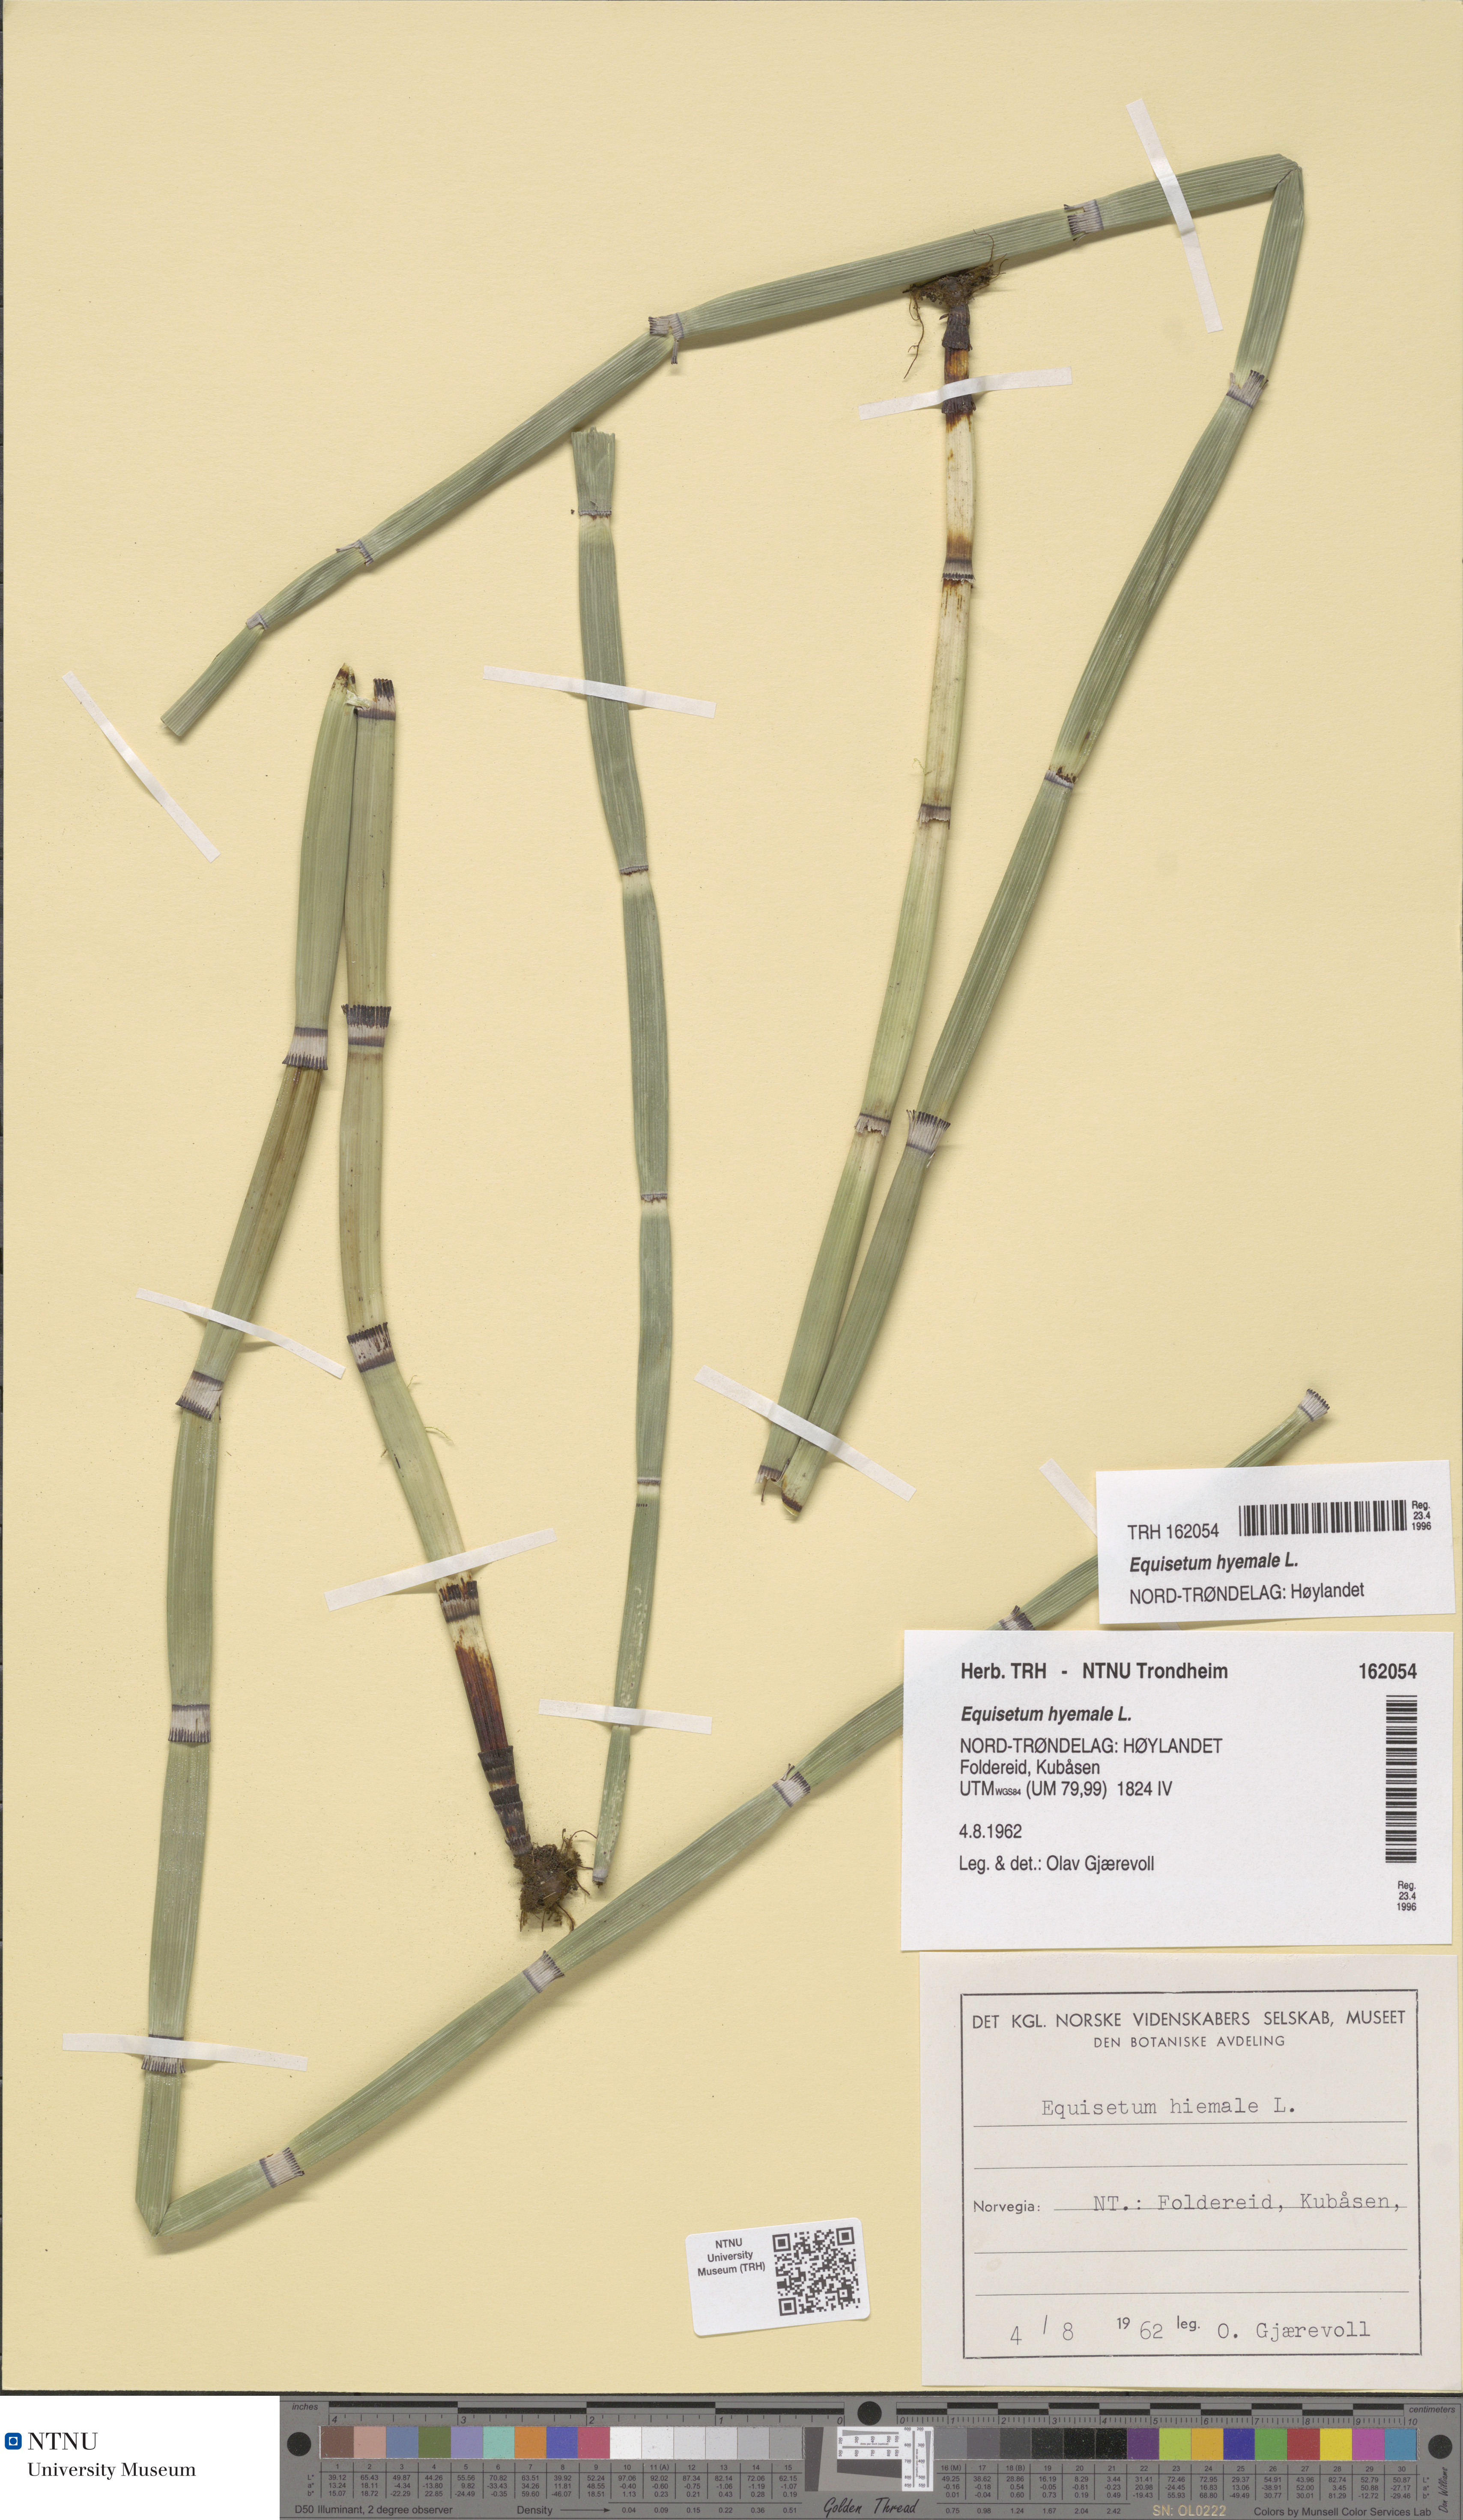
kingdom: Plantae
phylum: Tracheophyta
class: Polypodiopsida
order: Equisetales
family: Equisetaceae
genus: Equisetum
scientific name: Equisetum hyemale
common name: Rough horsetail
